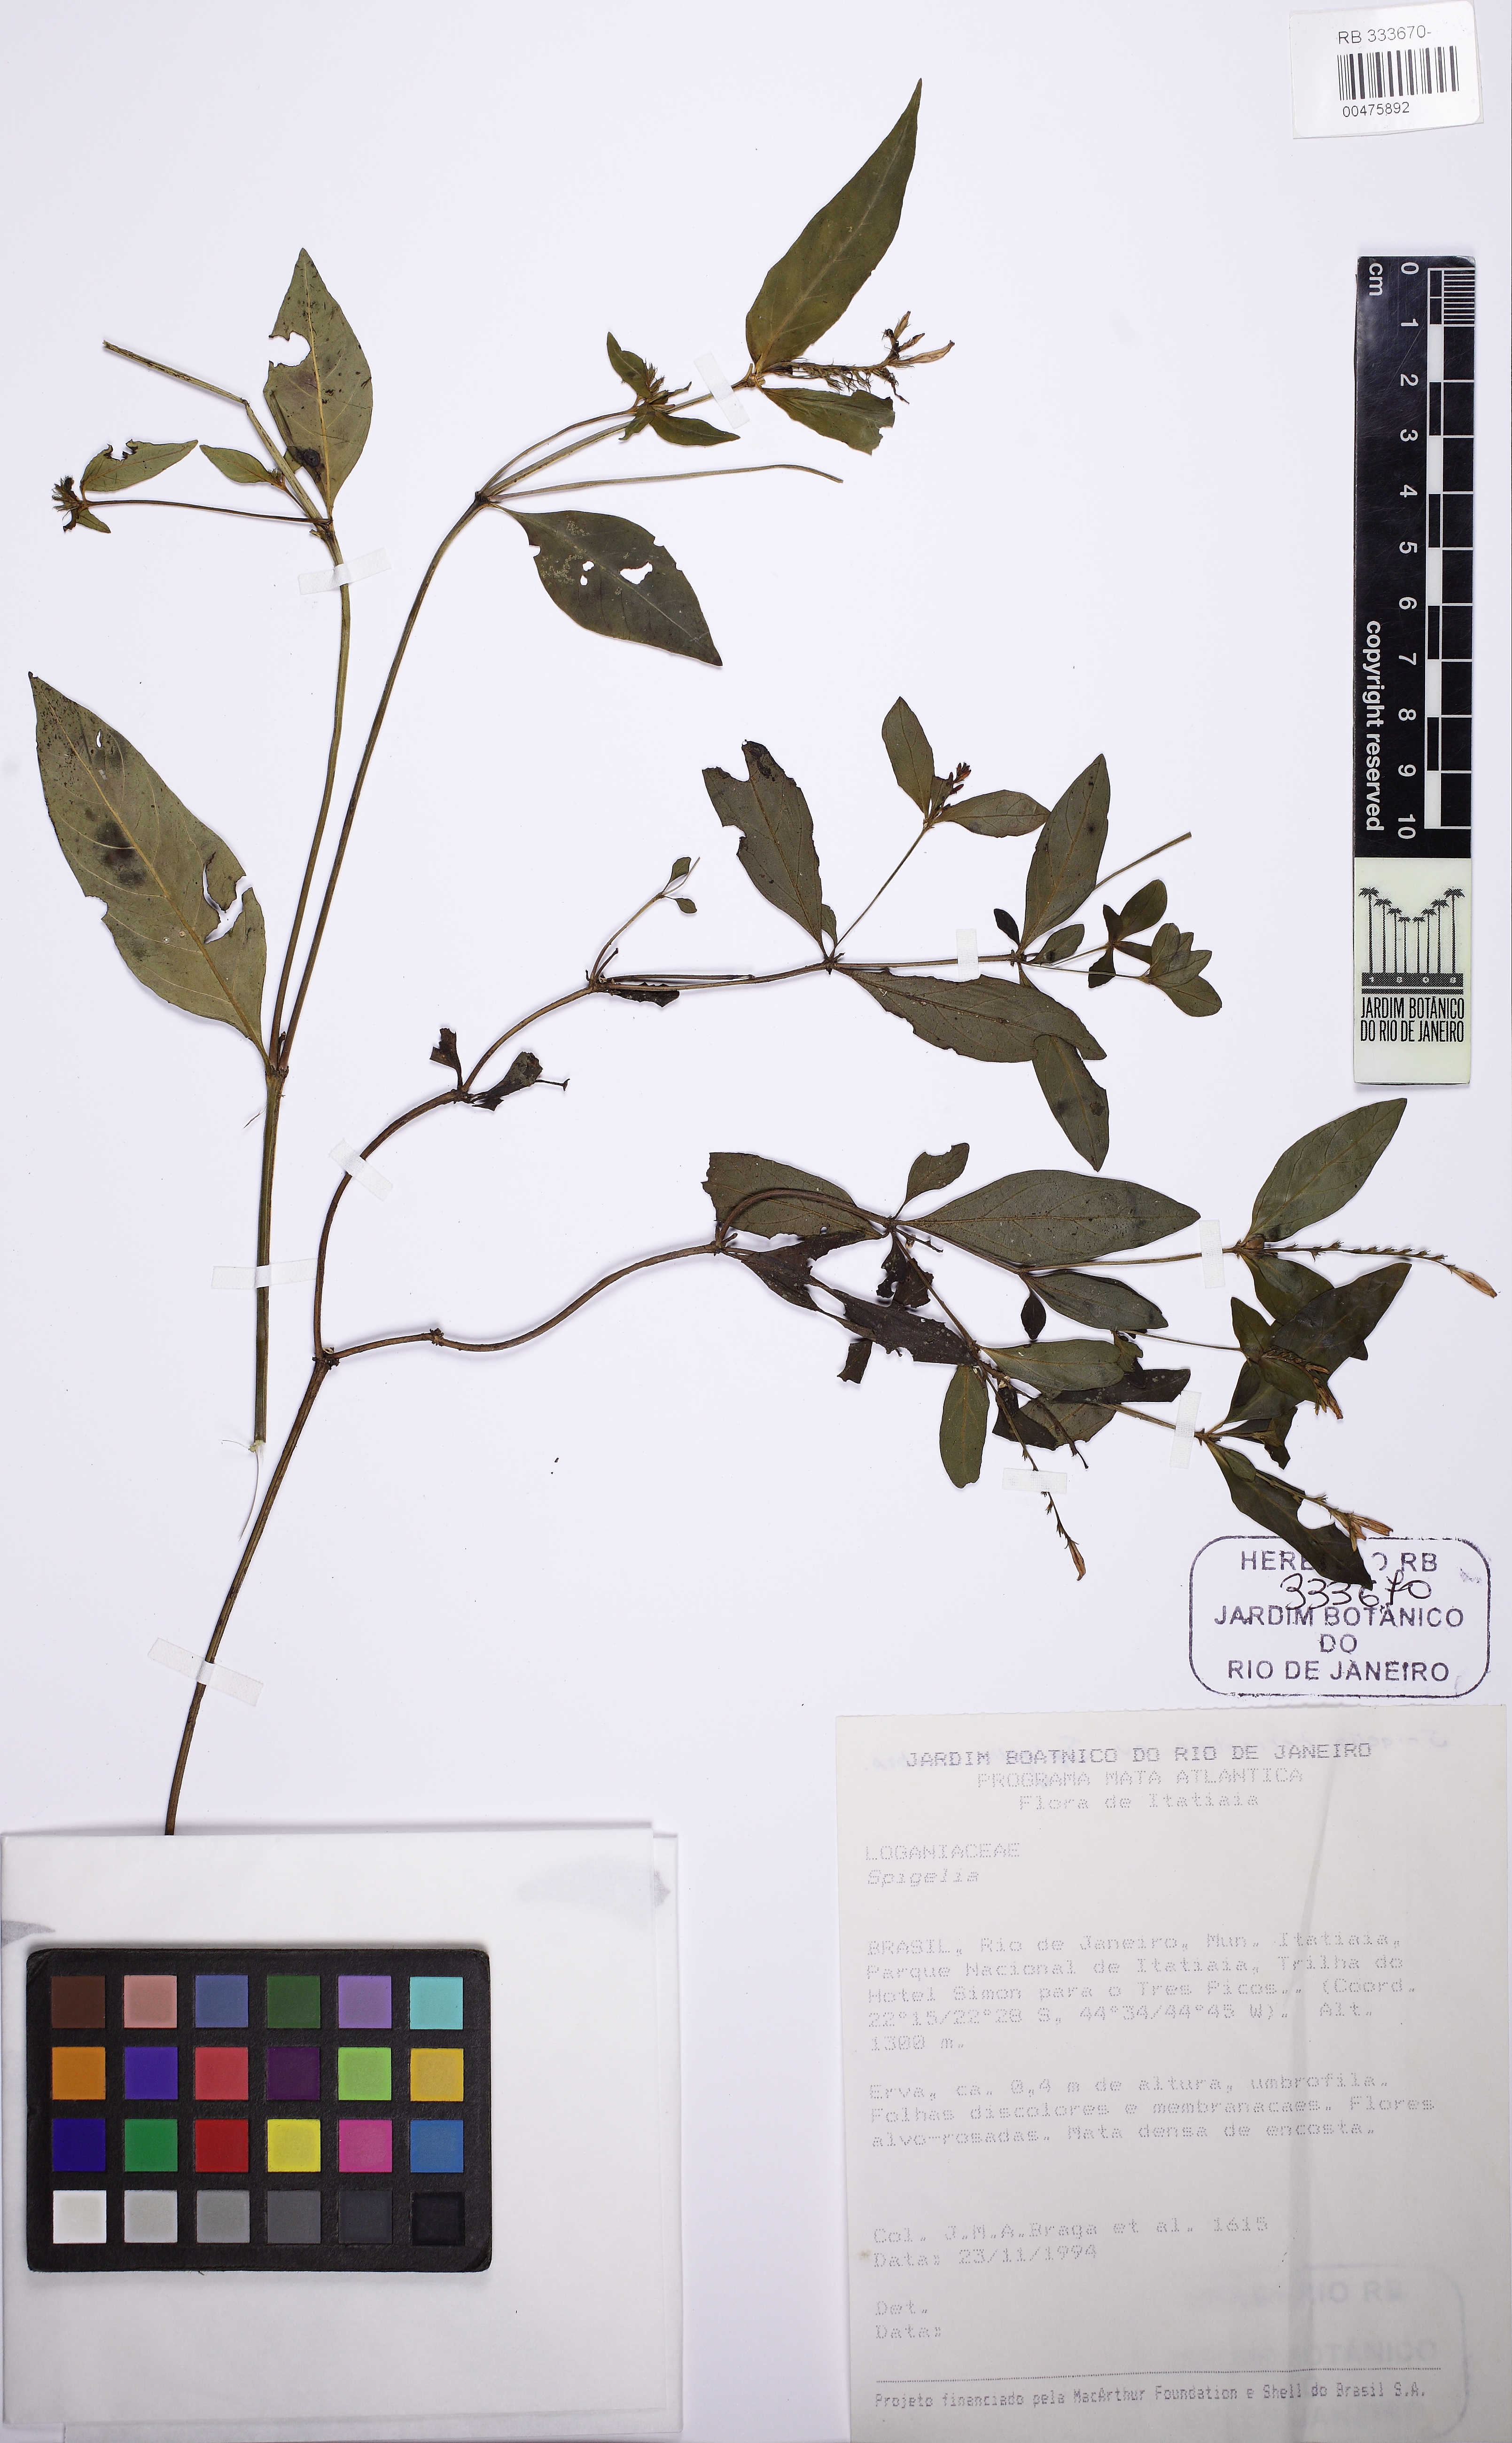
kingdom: Plantae
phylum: Tracheophyta
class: Magnoliopsida
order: Gentianales
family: Loganiaceae
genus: Spigelia
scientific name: Spigelia humboldtiana
